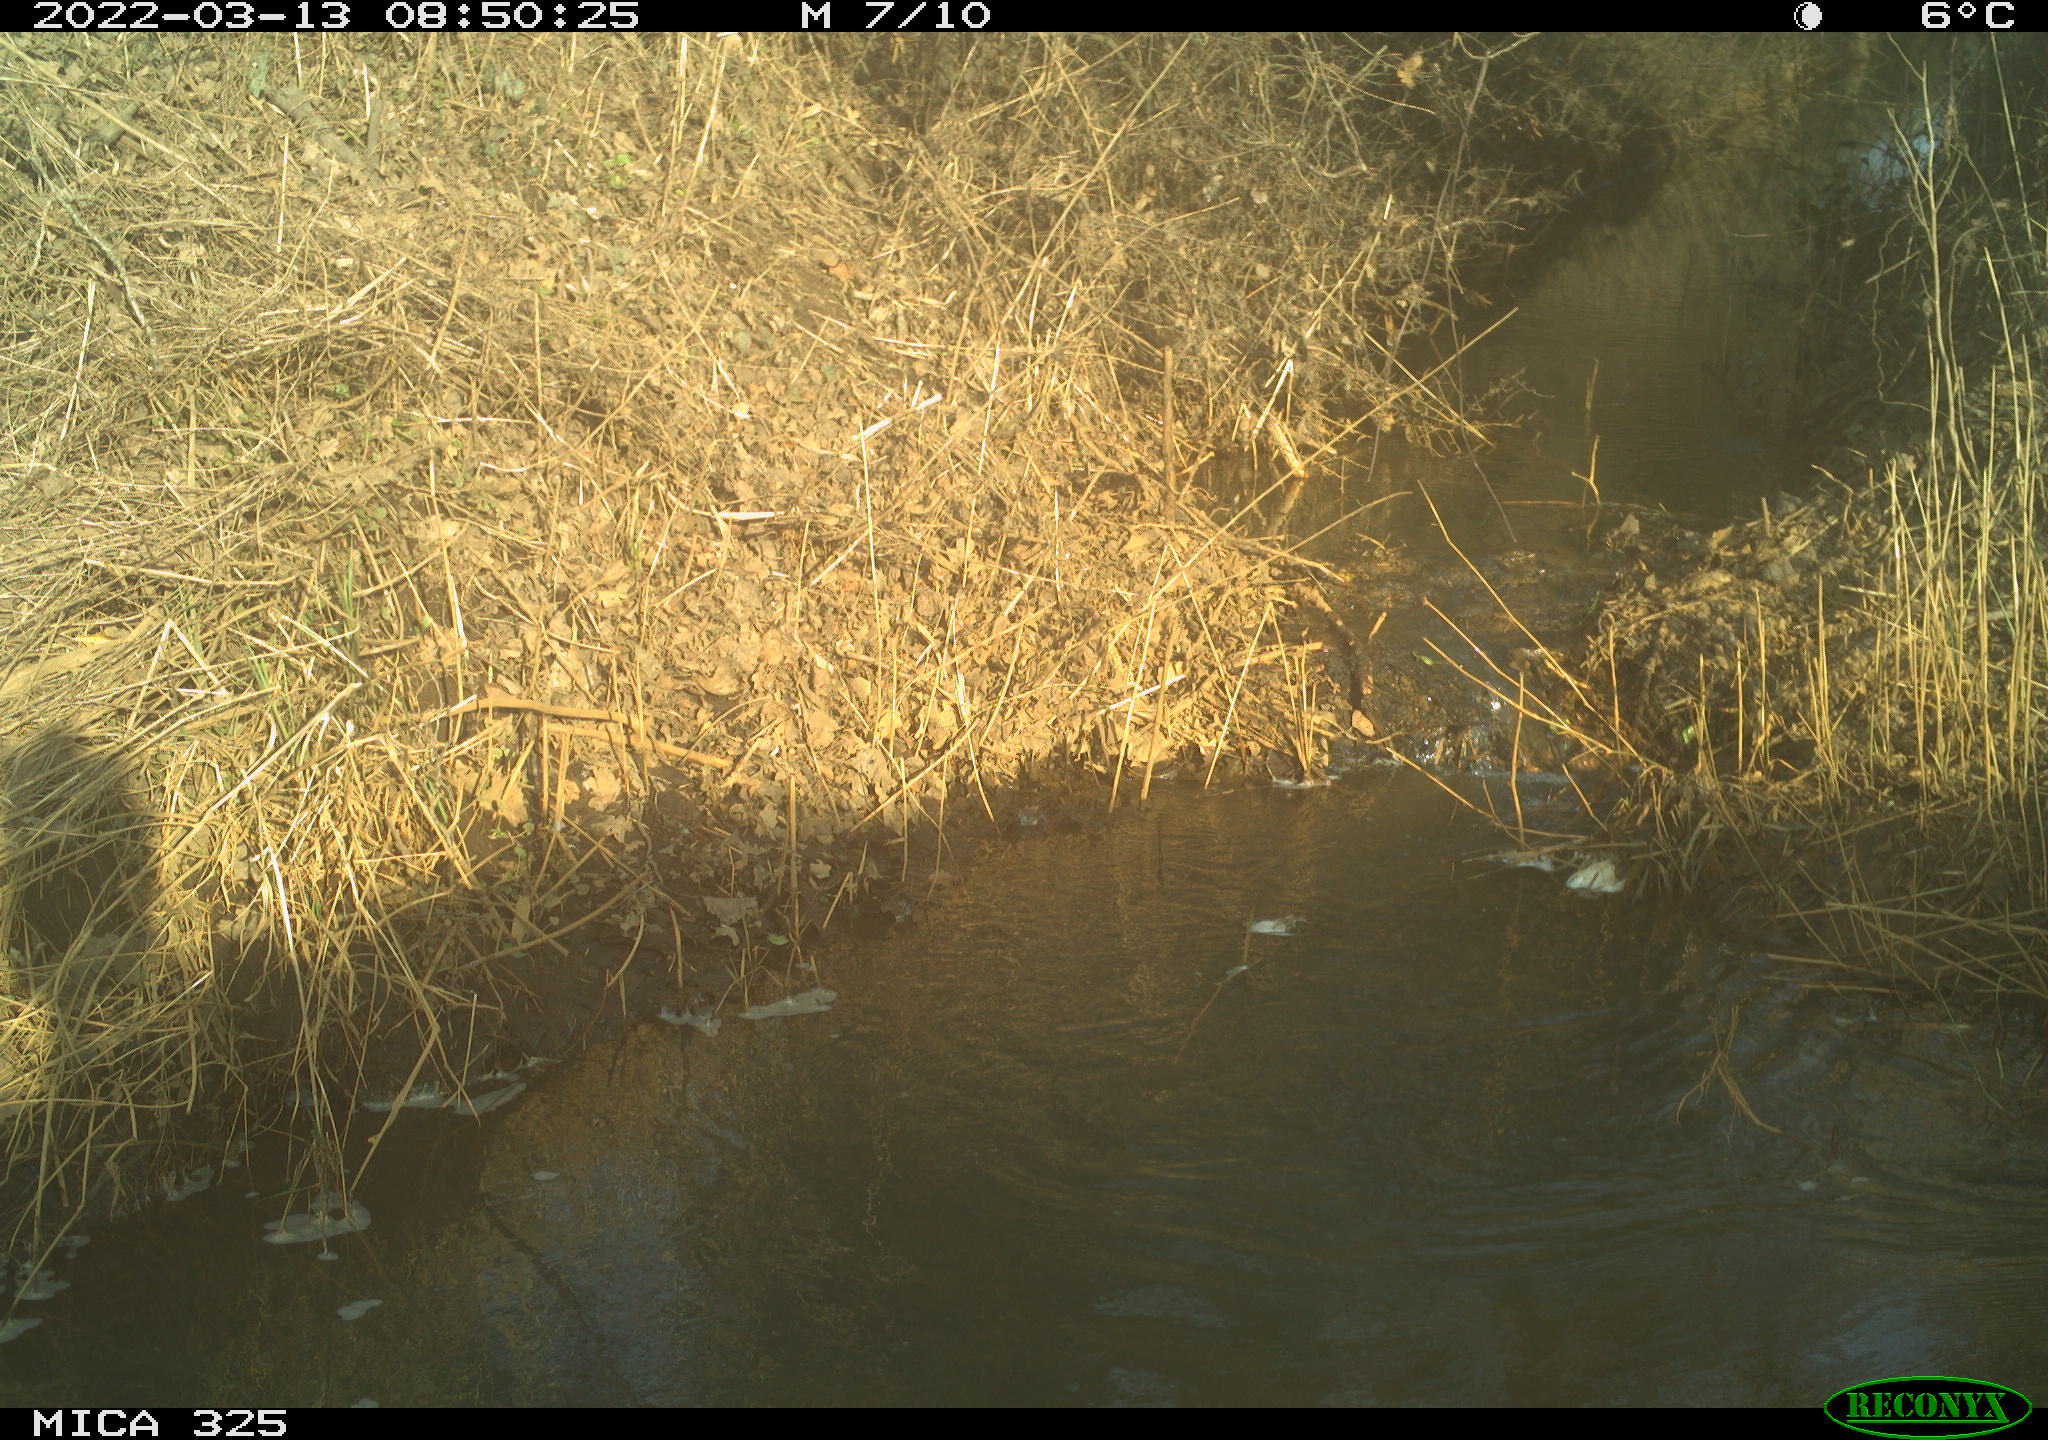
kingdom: Animalia
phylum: Chordata
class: Mammalia
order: Rodentia
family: Cricetidae
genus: Ondatra
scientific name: Ondatra zibethicus
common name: Muskrat
